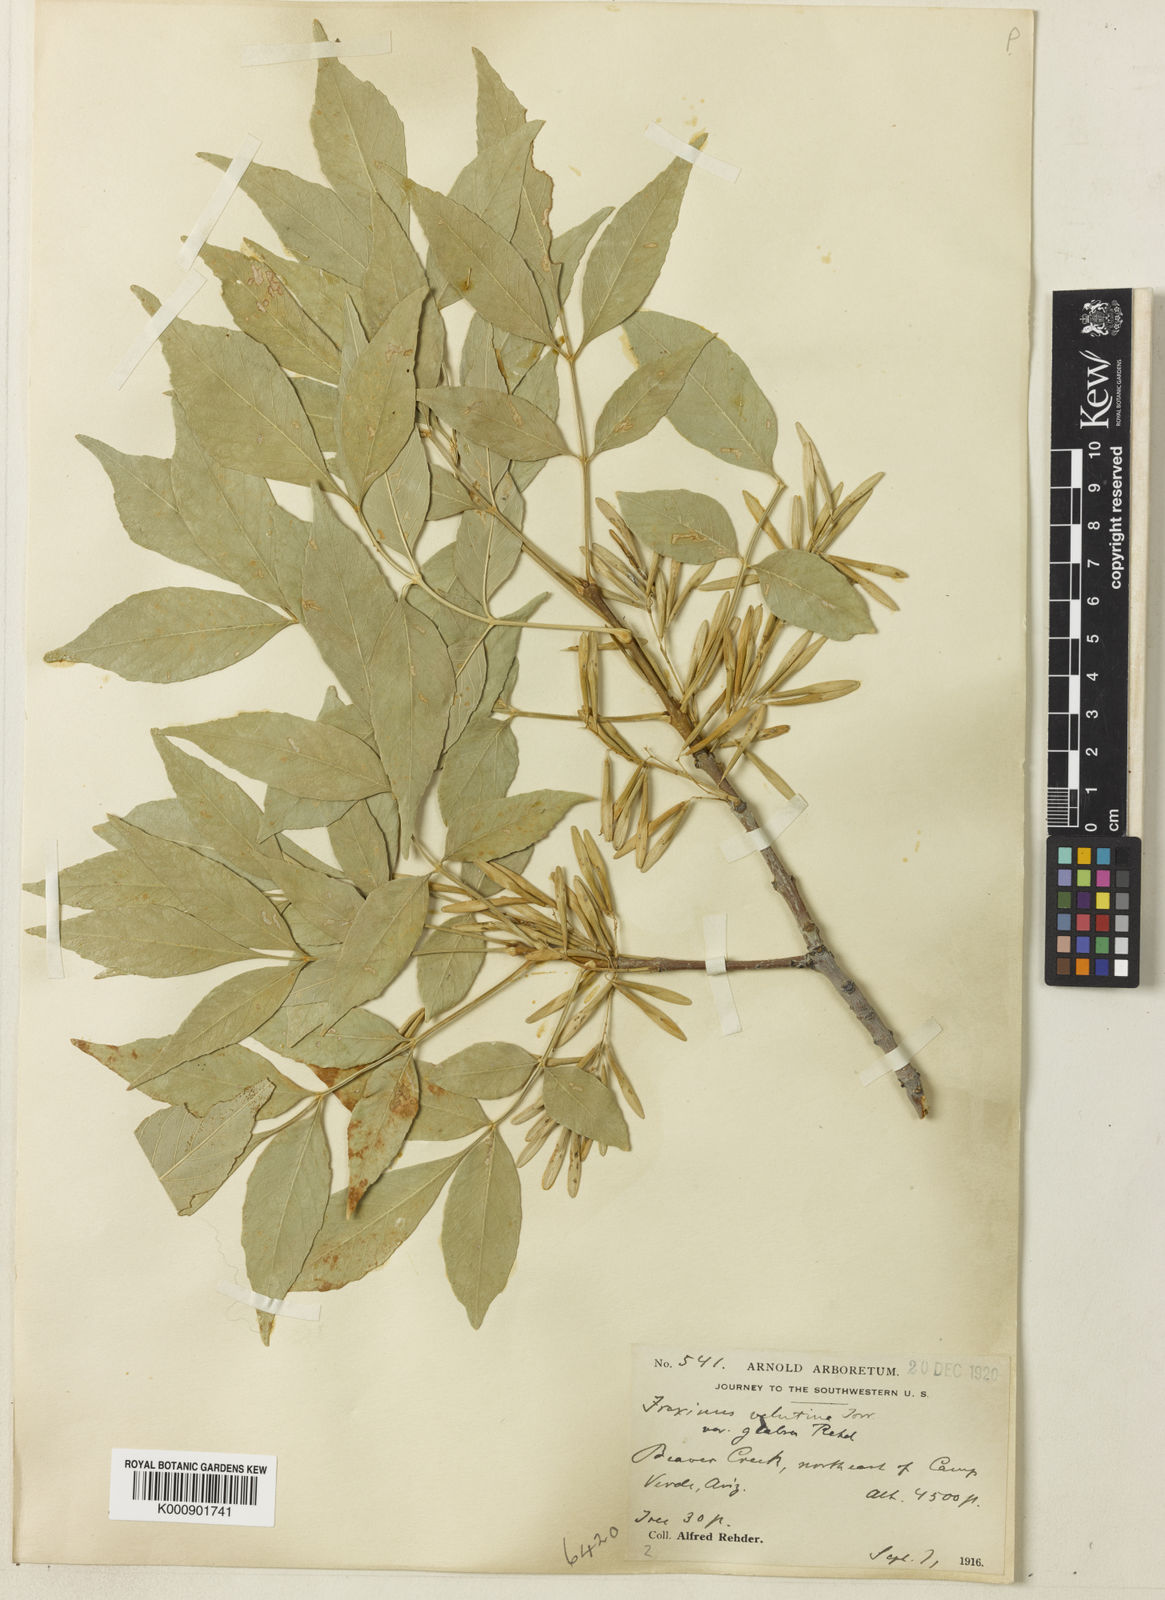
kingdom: Plantae
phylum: Tracheophyta
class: Magnoliopsida
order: Lamiales
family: Oleaceae
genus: Fraxinus
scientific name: Fraxinus velutina
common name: Arizon ash
